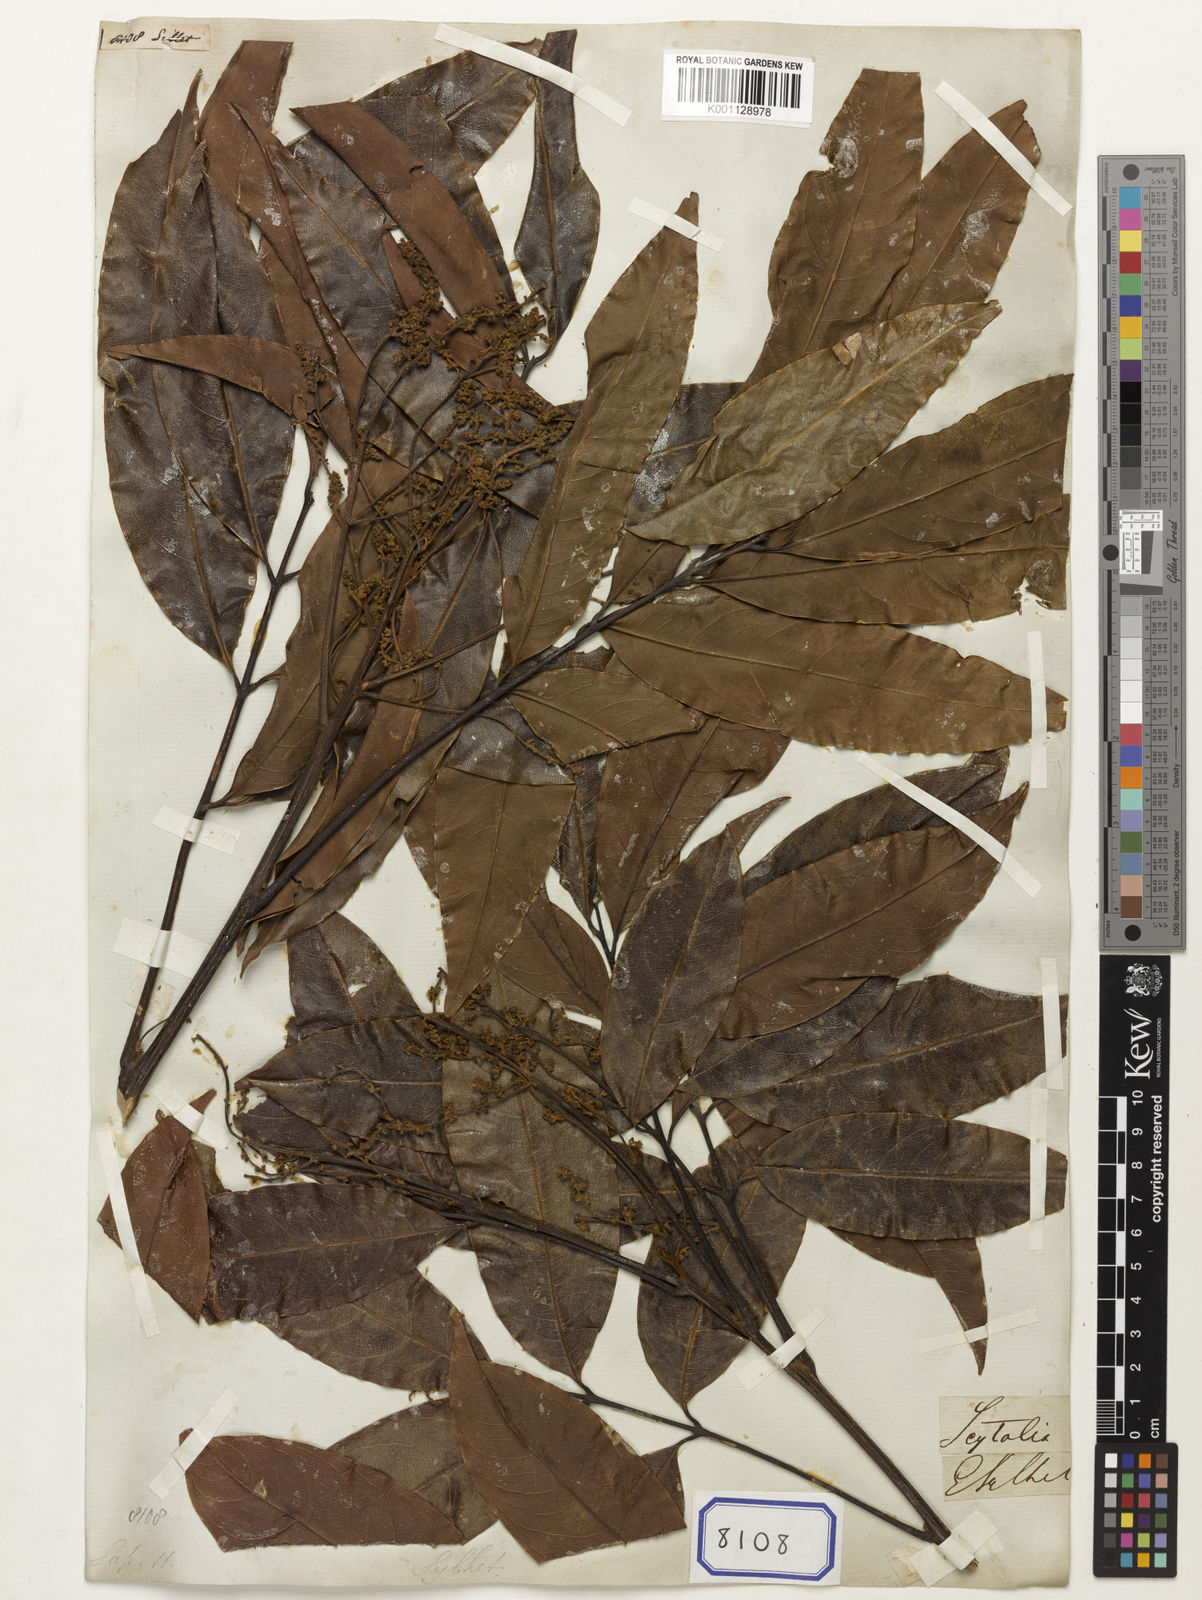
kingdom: Plantae
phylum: Tracheophyta
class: Magnoliopsida
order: Sapindales
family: Sapindaceae
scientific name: Sapindaceae
